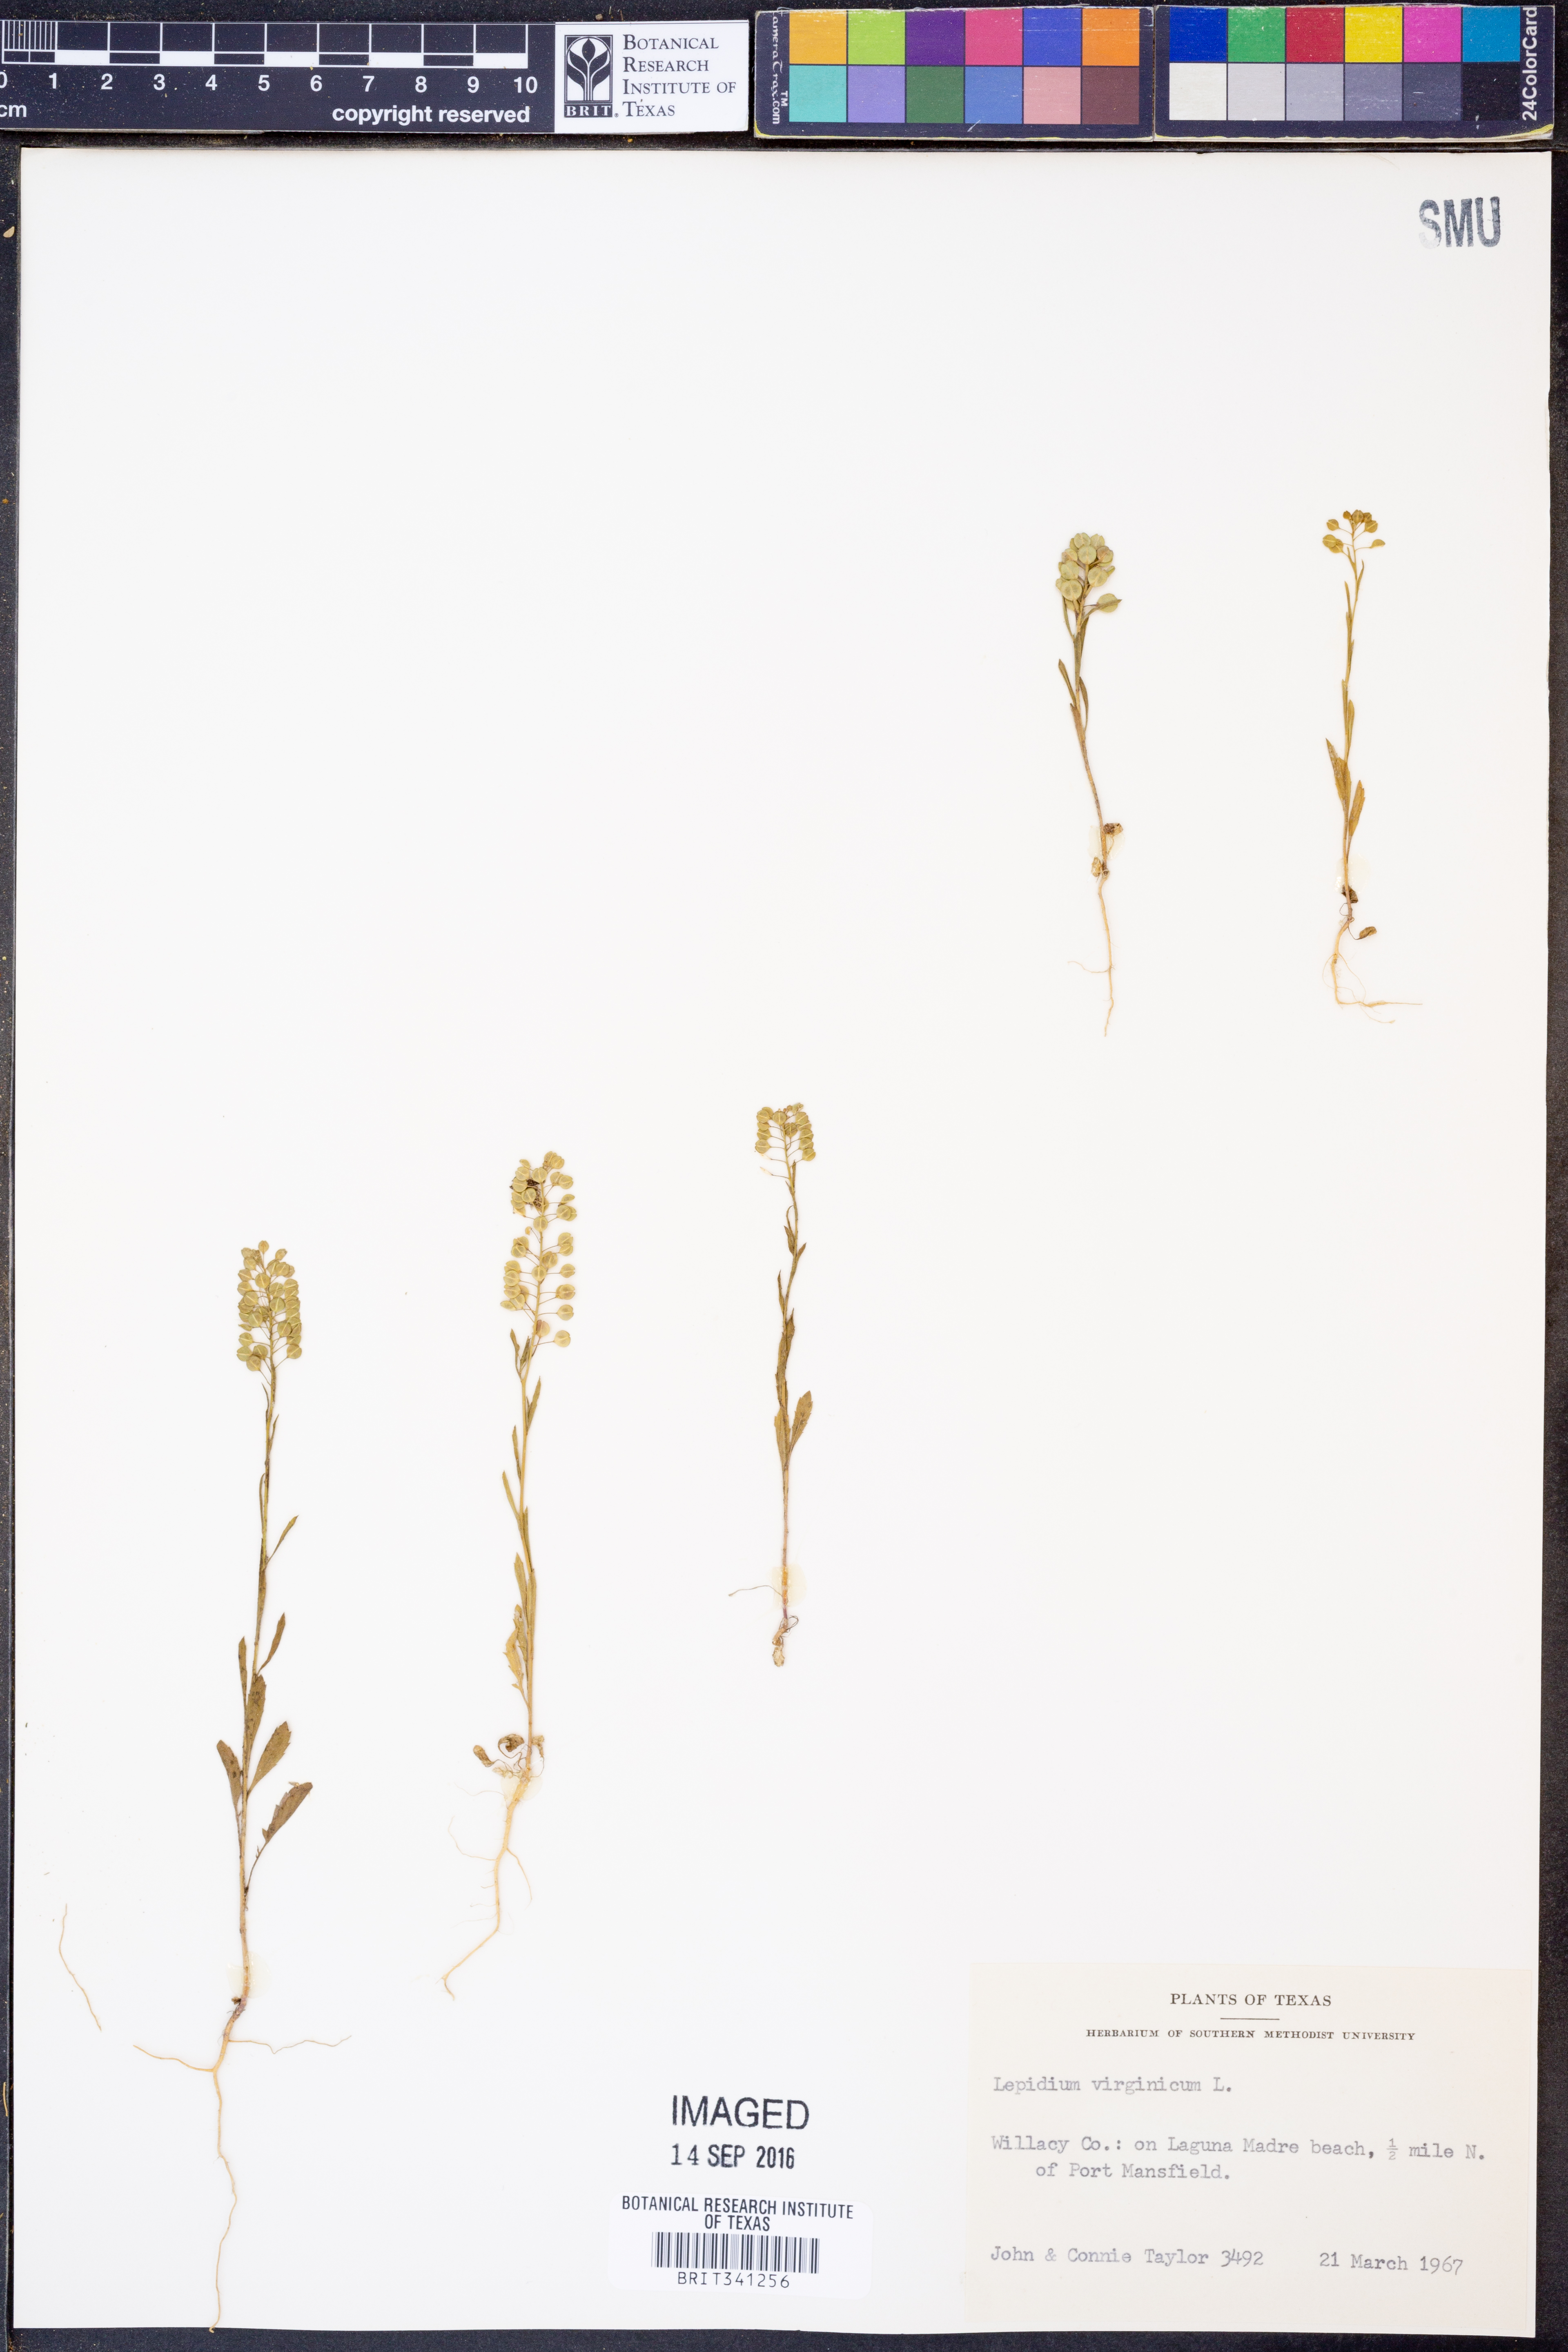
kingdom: Plantae
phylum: Tracheophyta
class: Magnoliopsida
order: Brassicales
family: Brassicaceae
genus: Lepidium
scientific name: Lepidium virginicum
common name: Least pepperwort
